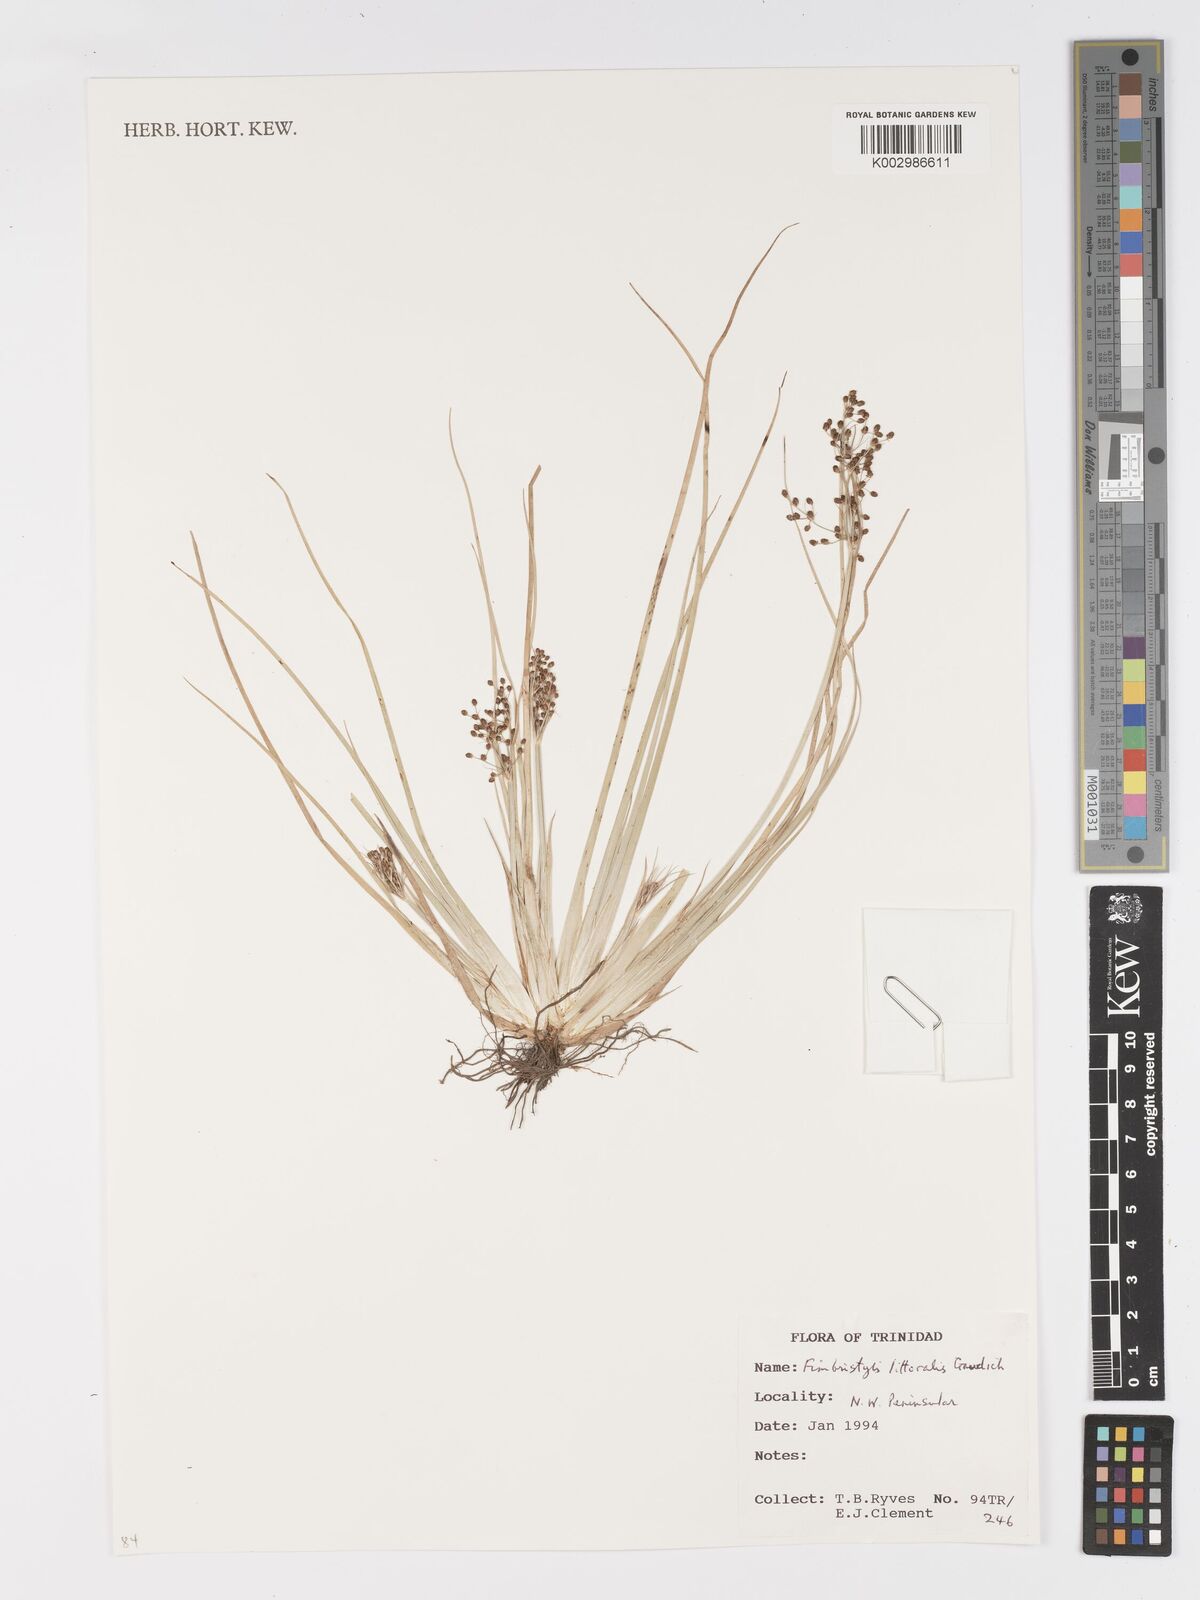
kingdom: Plantae
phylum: Tracheophyta
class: Liliopsida
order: Poales
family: Cyperaceae
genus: Fimbristylis
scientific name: Fimbristylis littoralis
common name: Fimbry
